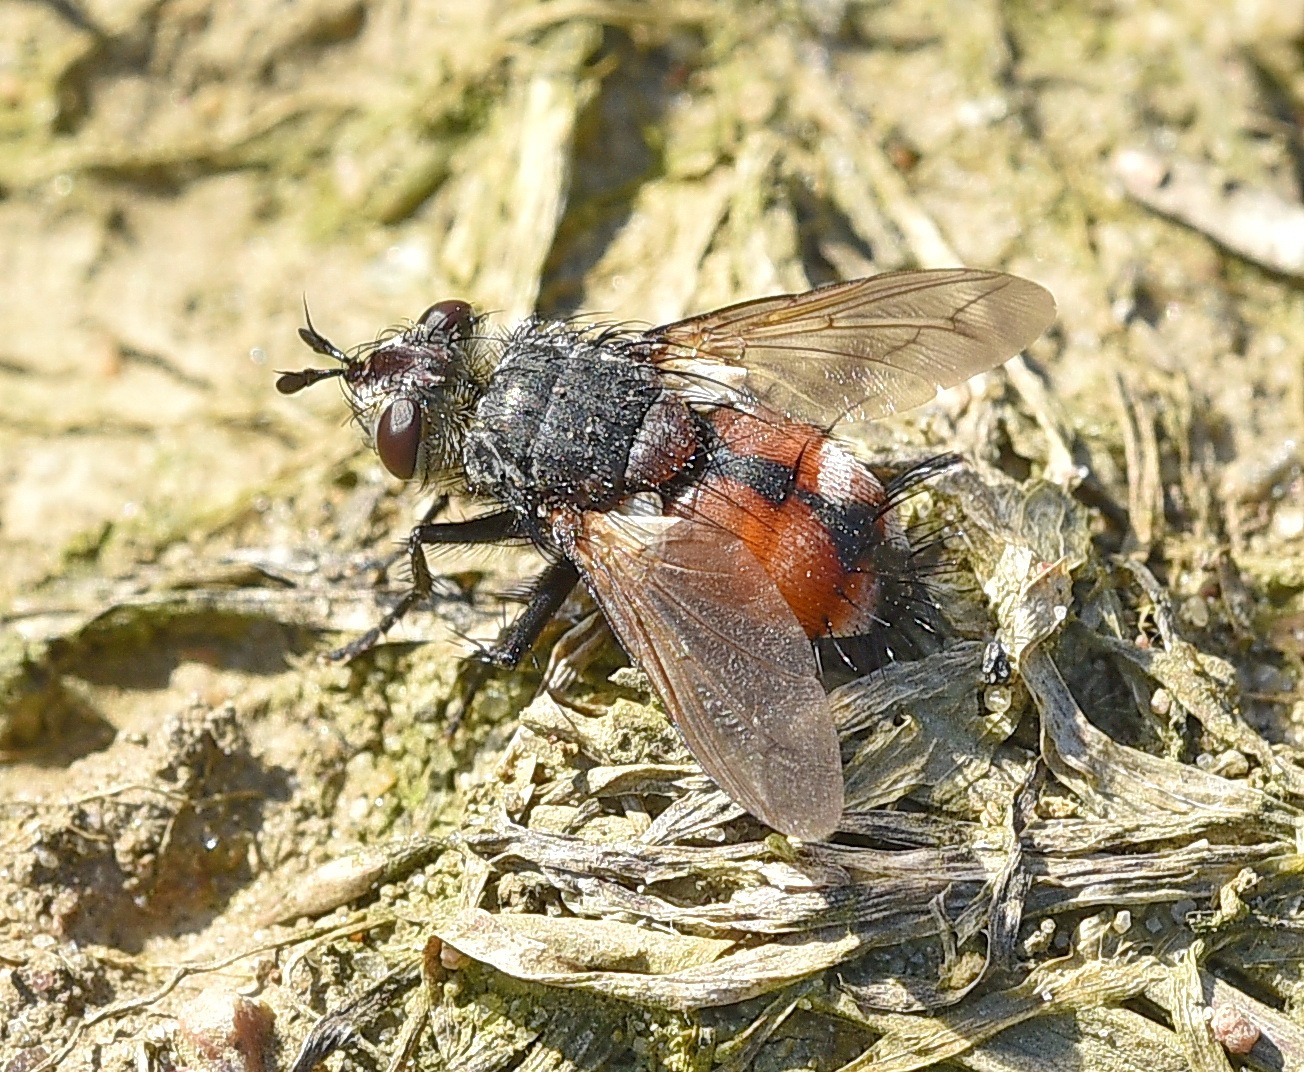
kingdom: Animalia
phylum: Arthropoda
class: Insecta
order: Diptera
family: Tachinidae
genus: Peleteria
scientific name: Peleteria rubescens
